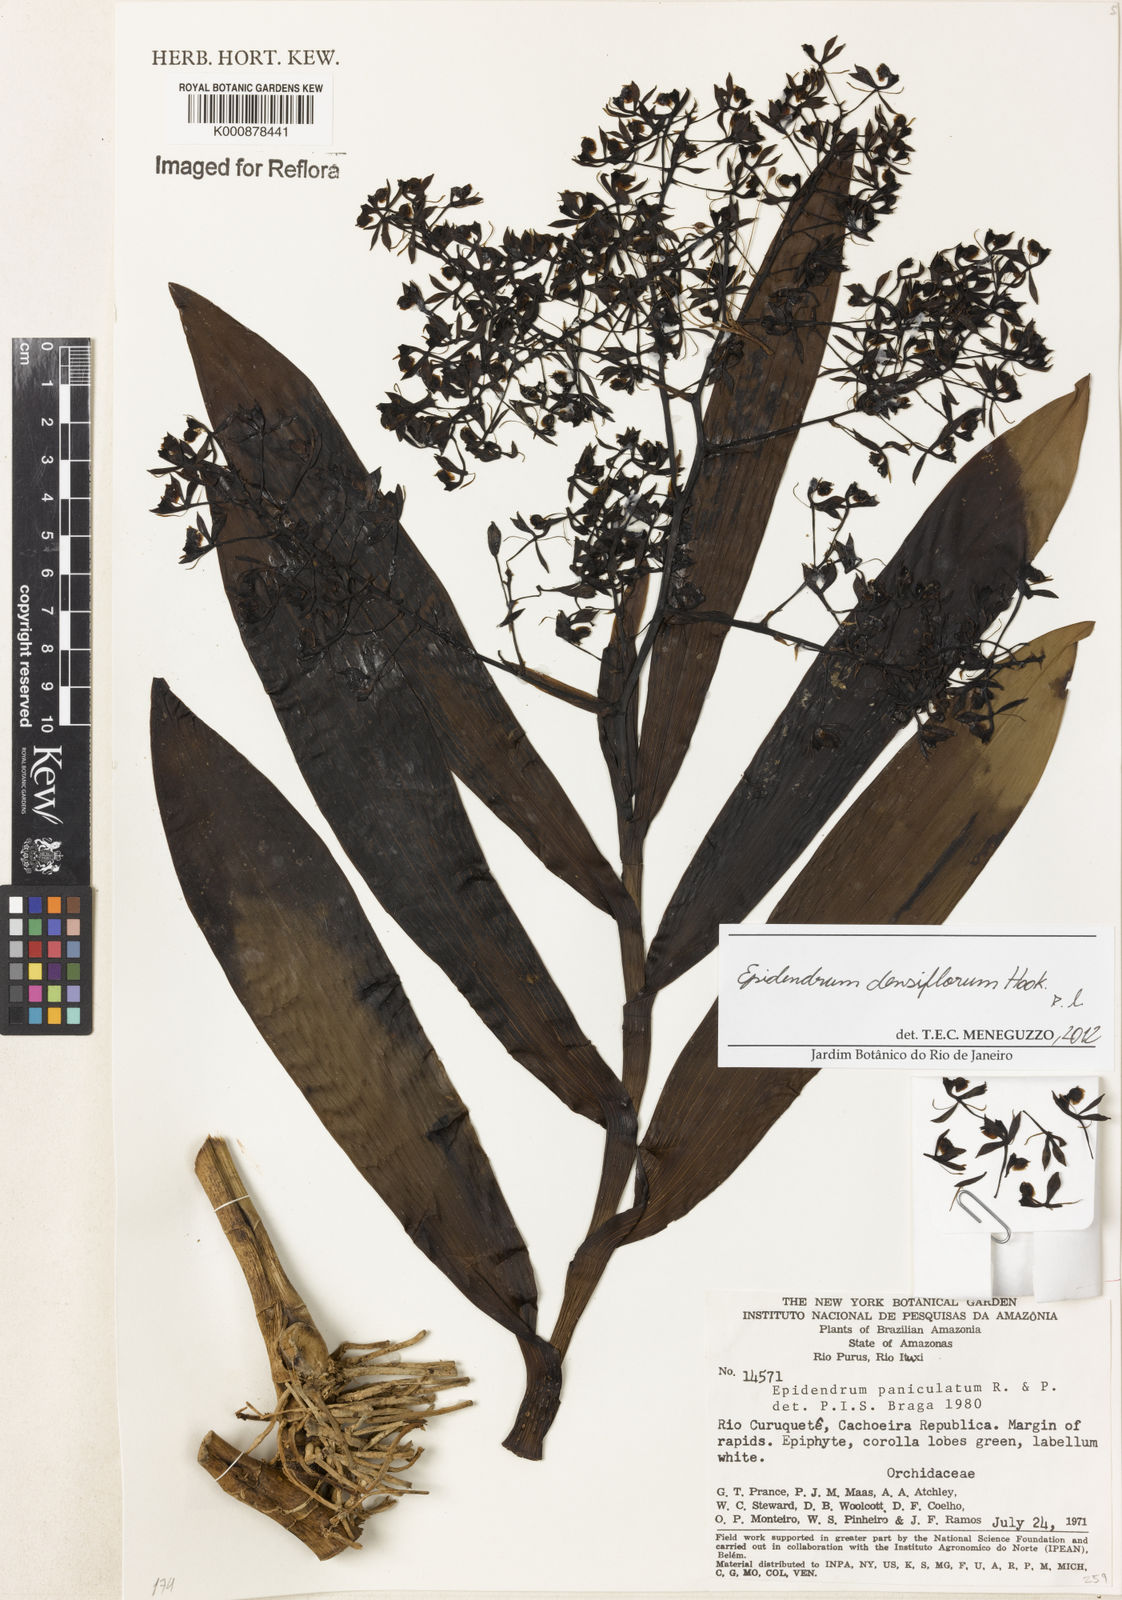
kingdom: Plantae
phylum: Tracheophyta
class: Liliopsida
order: Asparagales
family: Orchidaceae
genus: Epidendrum
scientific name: Epidendrum densiflorum
